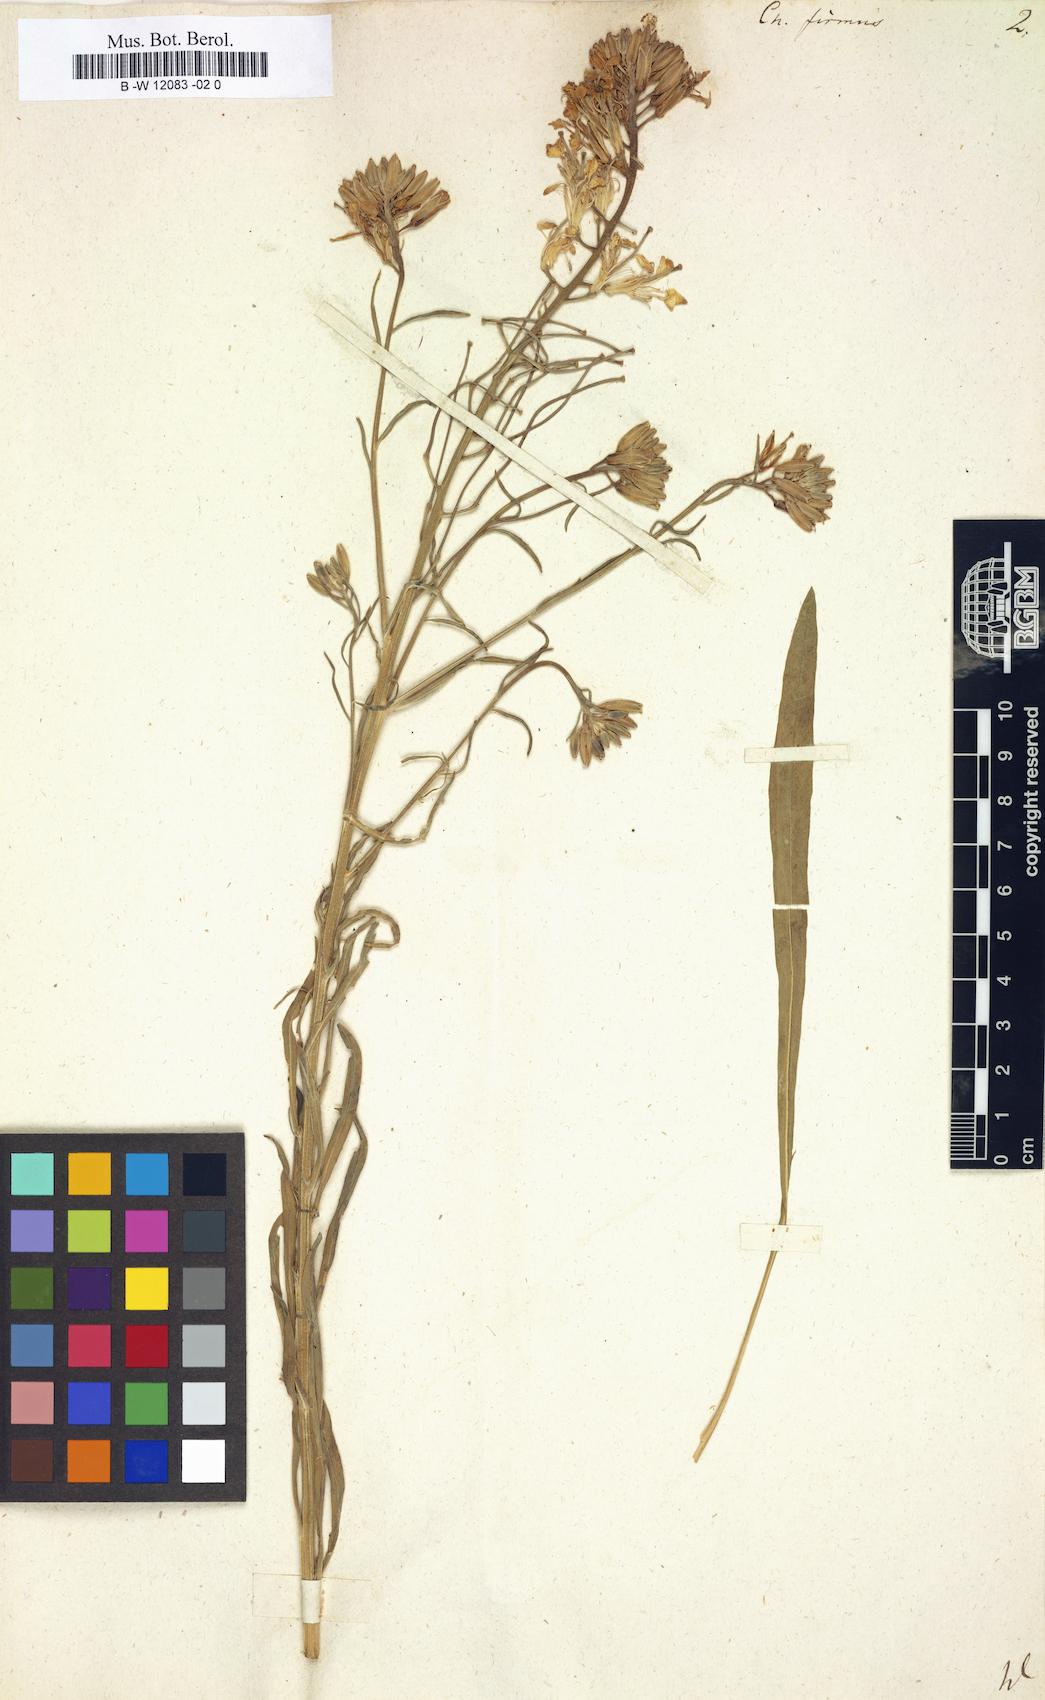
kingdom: Plantae
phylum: Tracheophyta
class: Magnoliopsida
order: Brassicales
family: Brassicaceae
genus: Erysimum
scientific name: Erysimum
